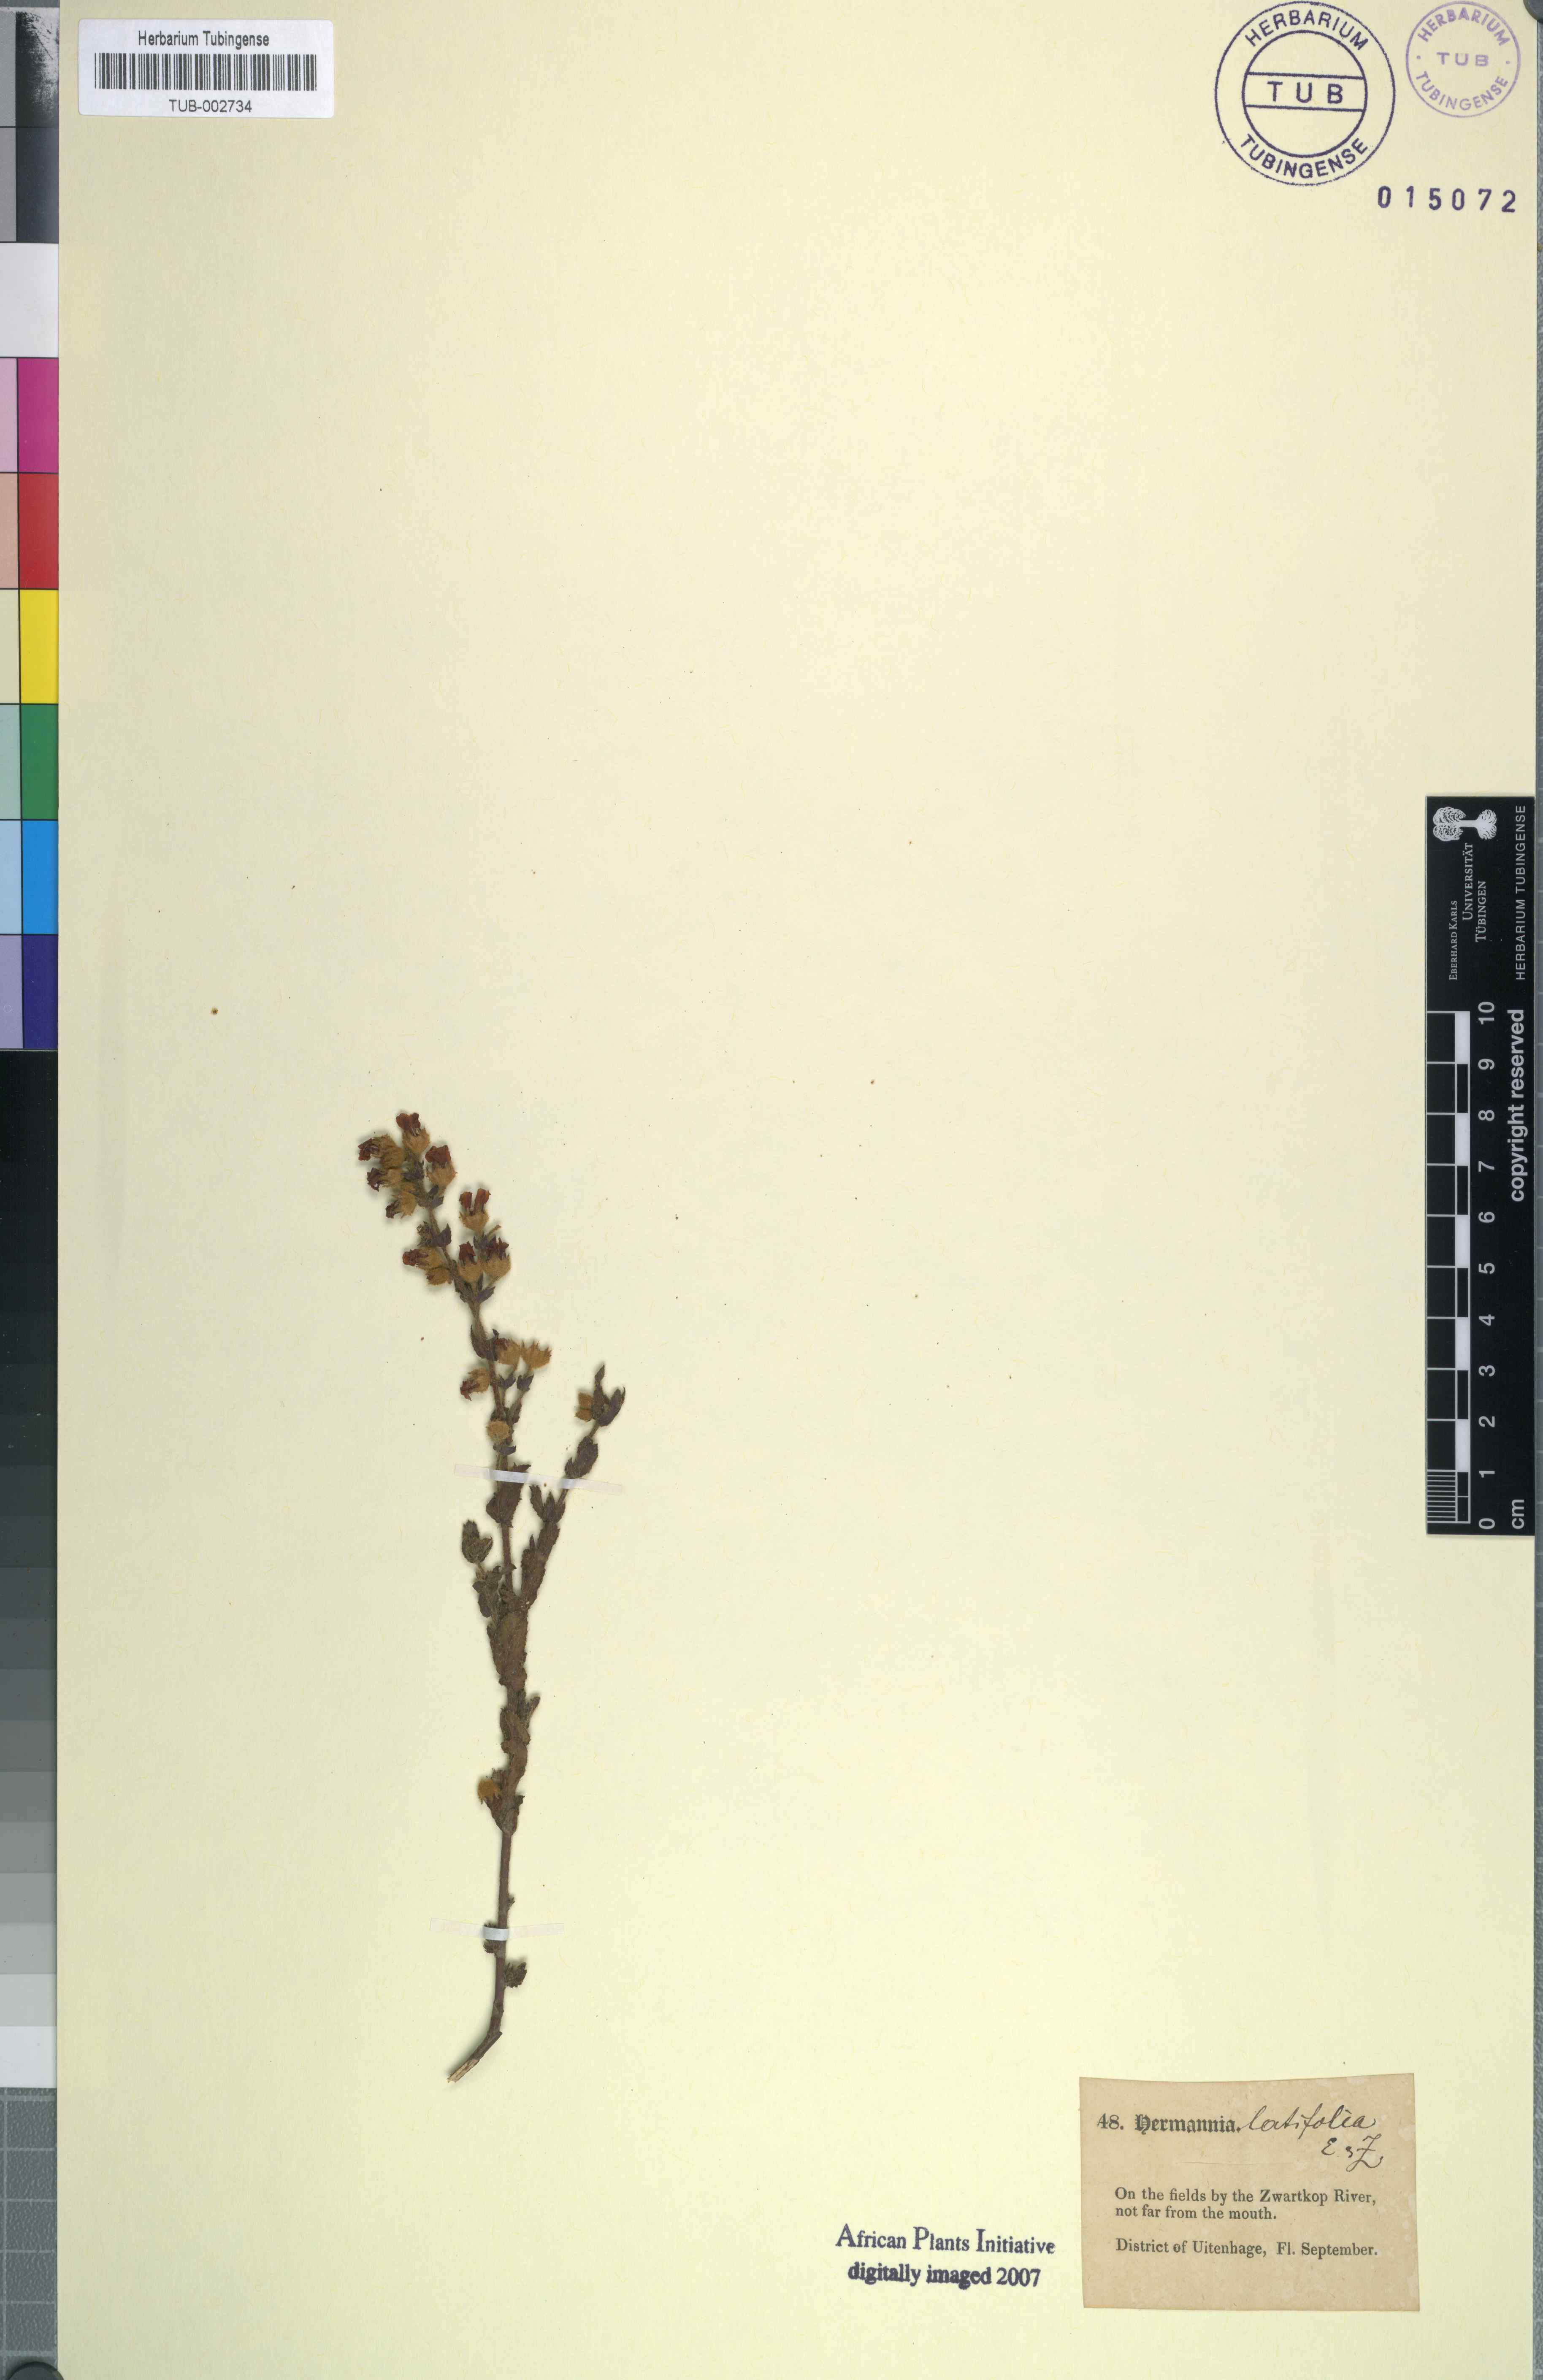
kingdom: Plantae
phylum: Tracheophyta
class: Magnoliopsida
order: Malvales
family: Malvaceae
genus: Hermannia
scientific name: Hermannia salviifolia
